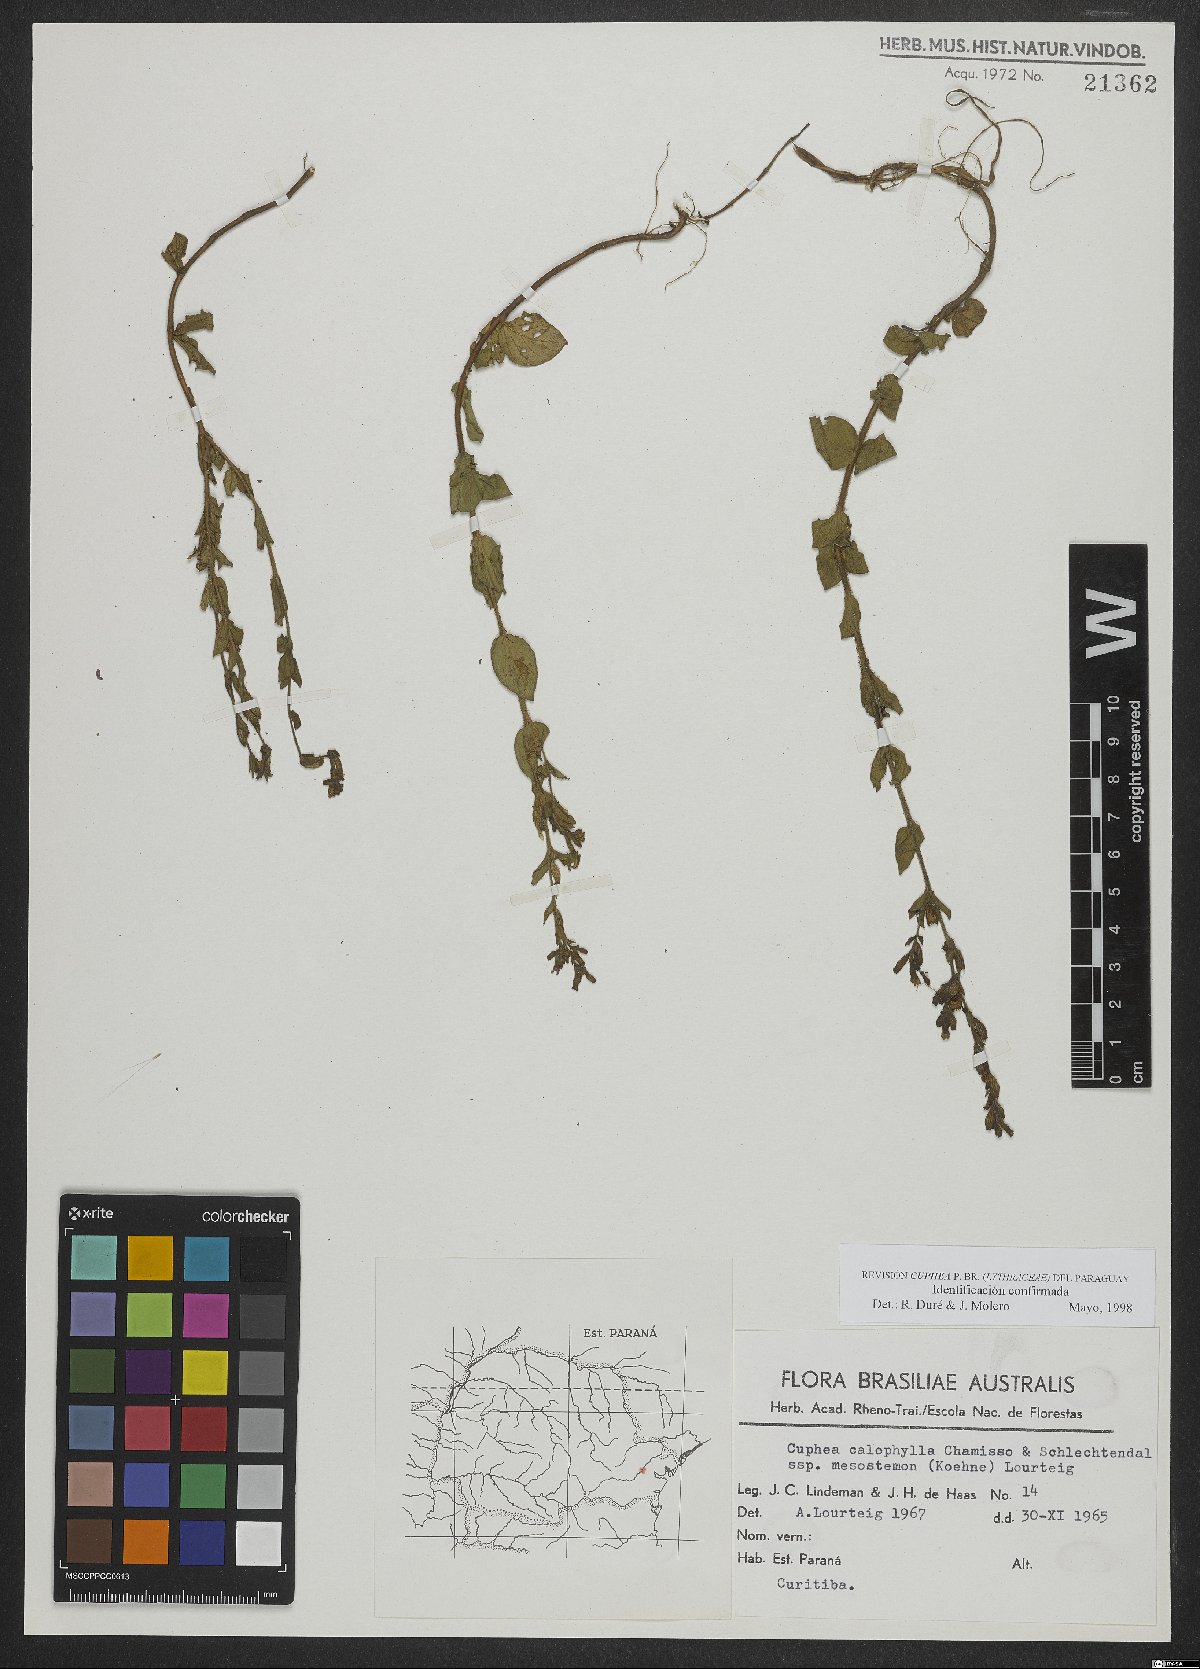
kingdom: Plantae
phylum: Tracheophyta
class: Magnoliopsida
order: Myrtales
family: Lythraceae
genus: Cuphea
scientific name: Cuphea calophylla
